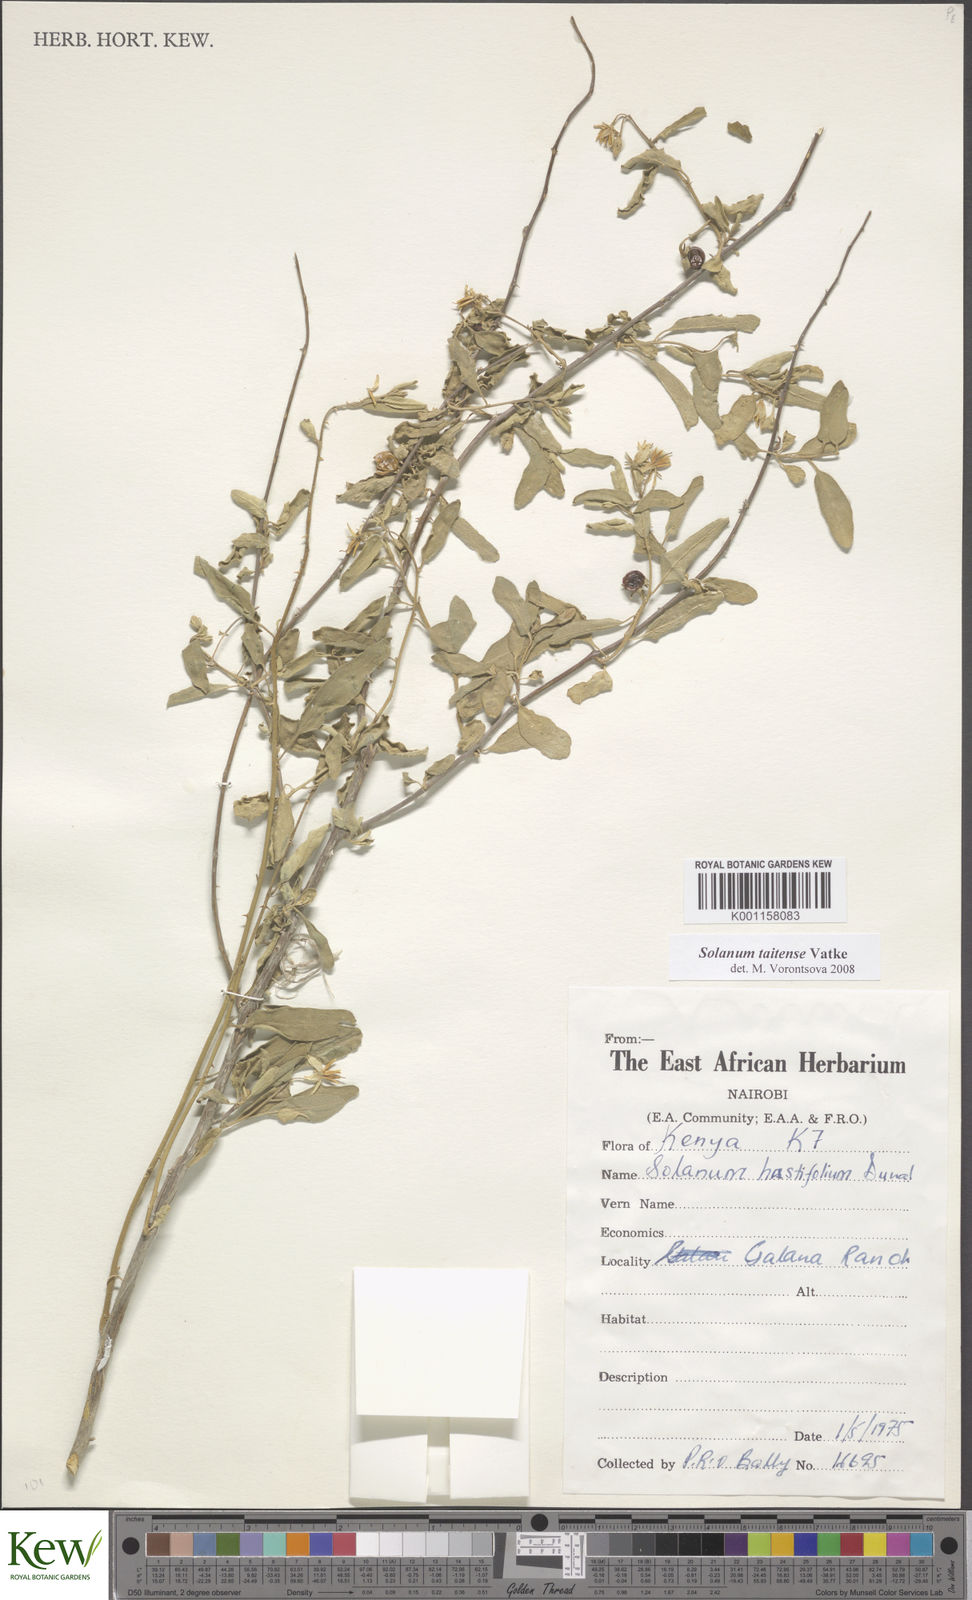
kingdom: Plantae
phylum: Tracheophyta
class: Magnoliopsida
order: Solanales
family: Solanaceae
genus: Solanum
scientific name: Solanum taitense
